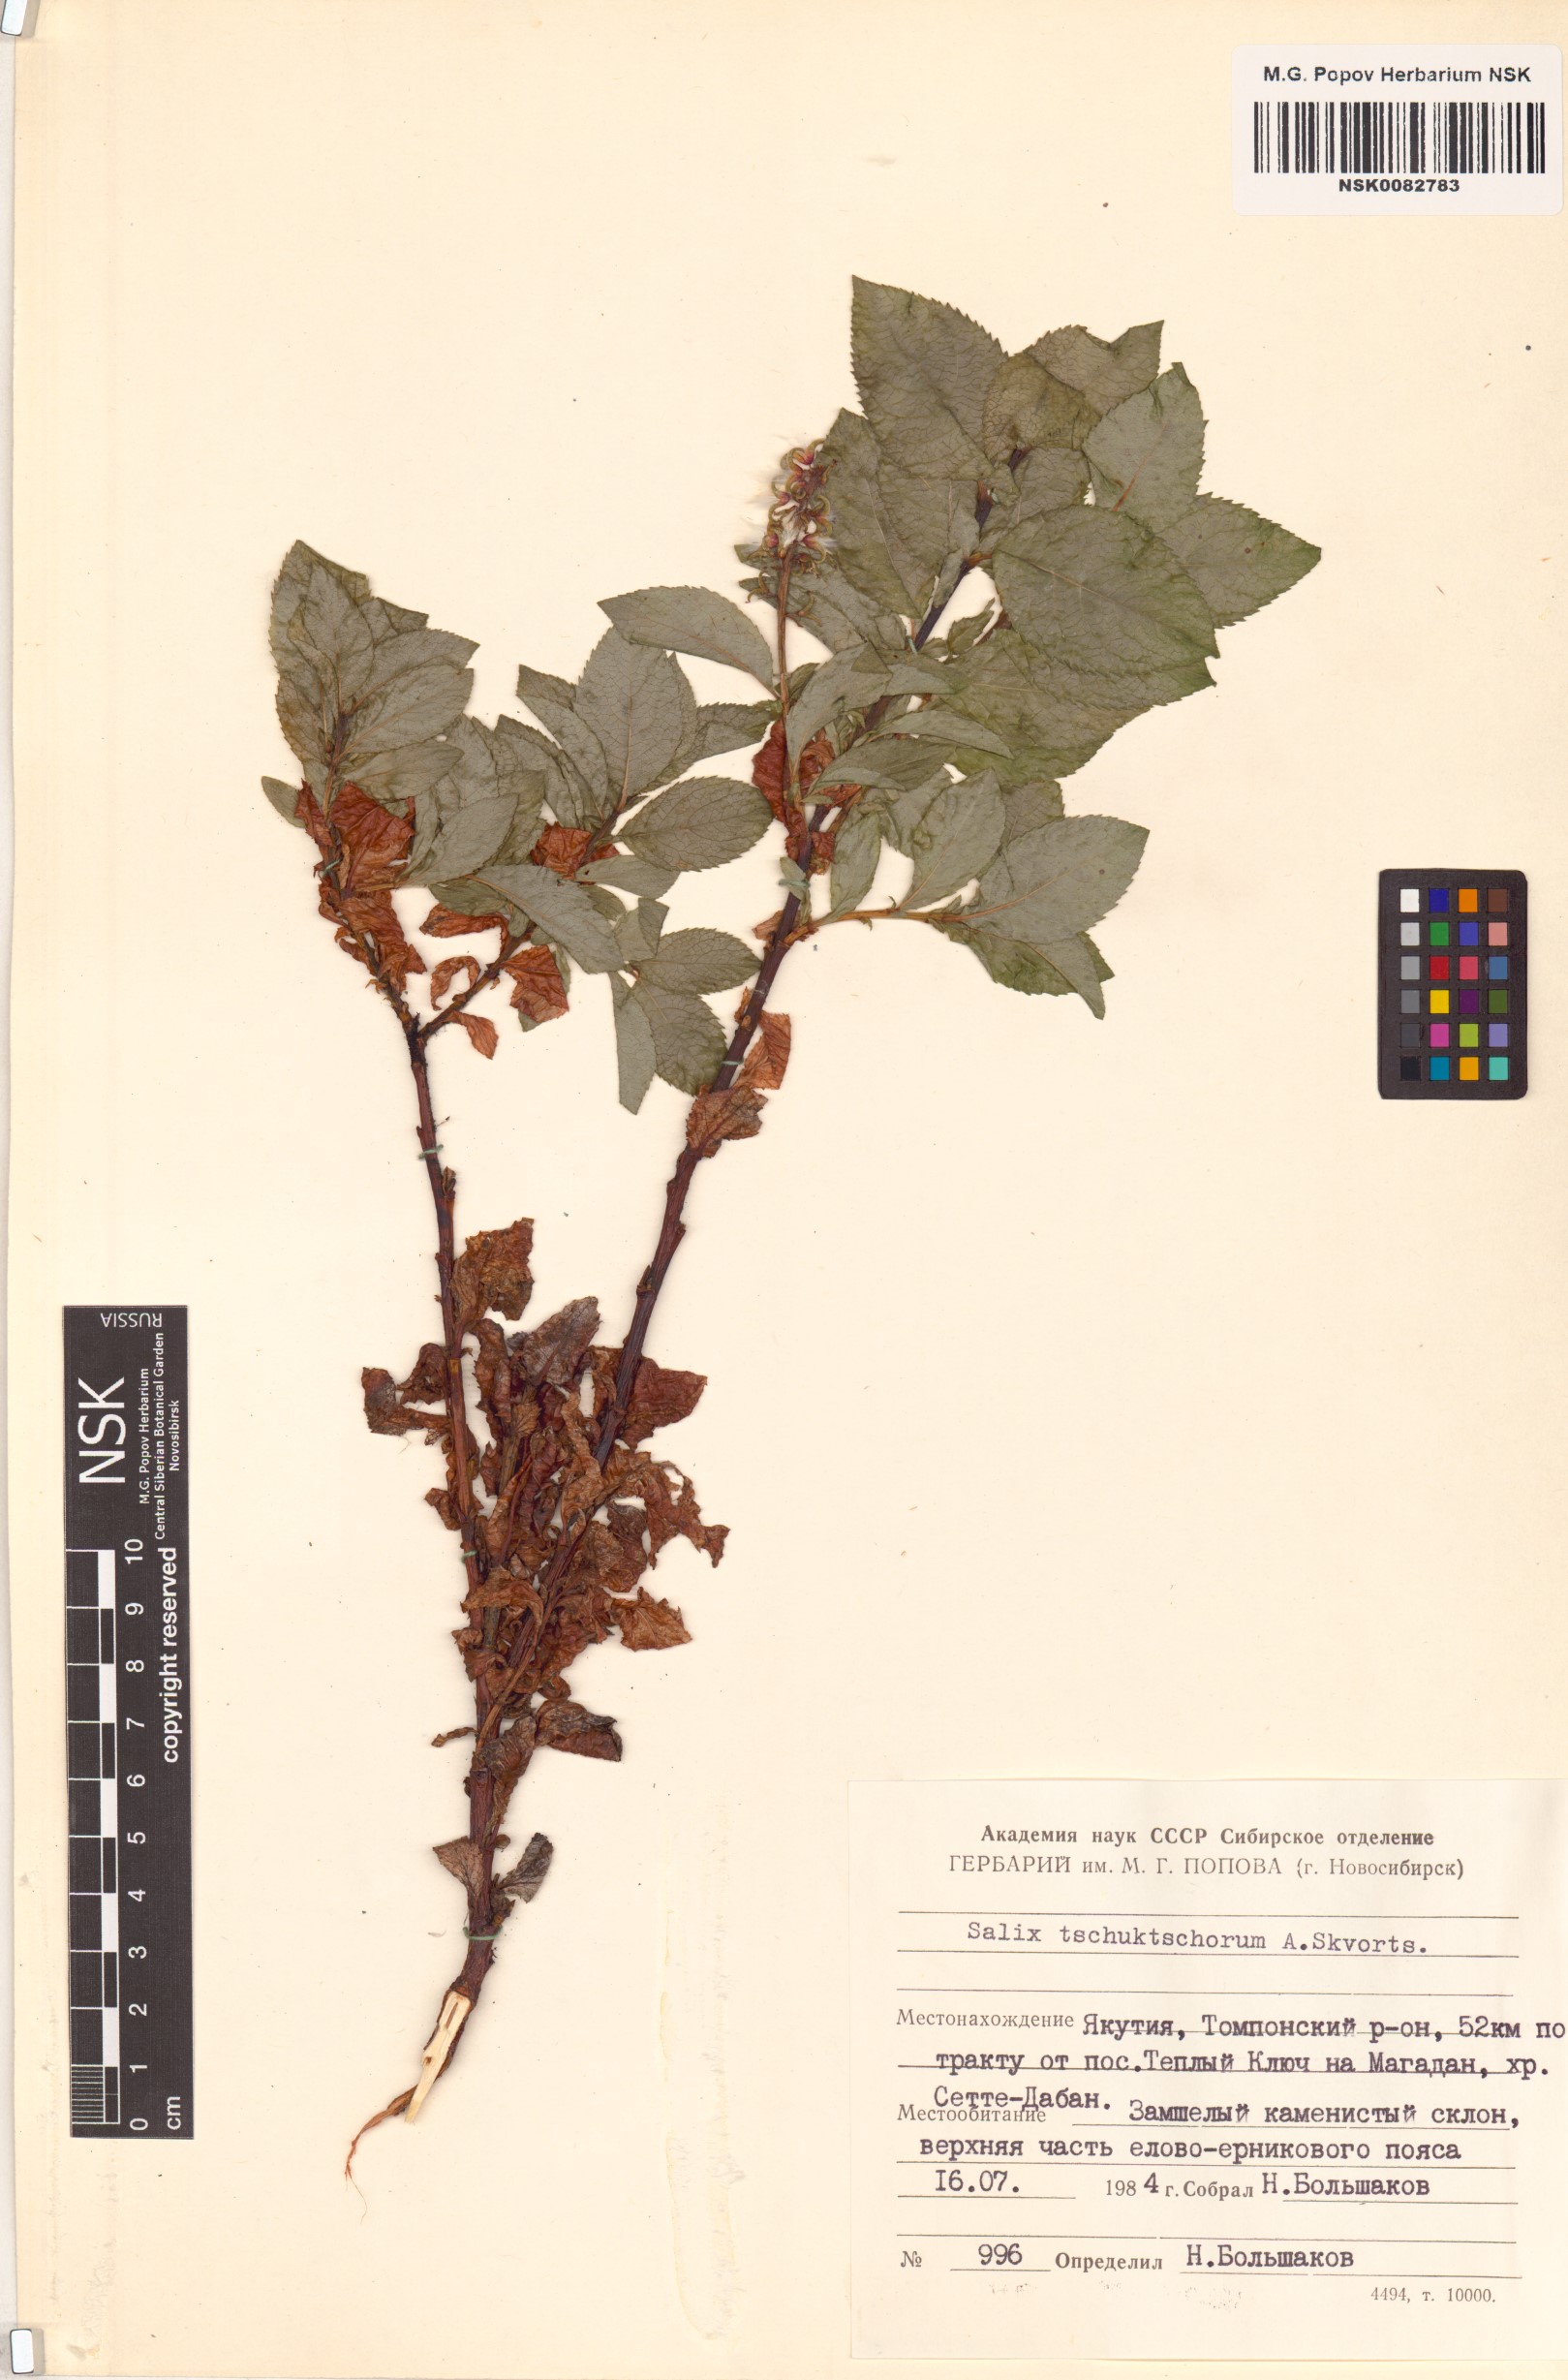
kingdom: Plantae
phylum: Tracheophyta
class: Magnoliopsida
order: Malpighiales
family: Salicaceae
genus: Salix
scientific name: Salix tschuktschorum
